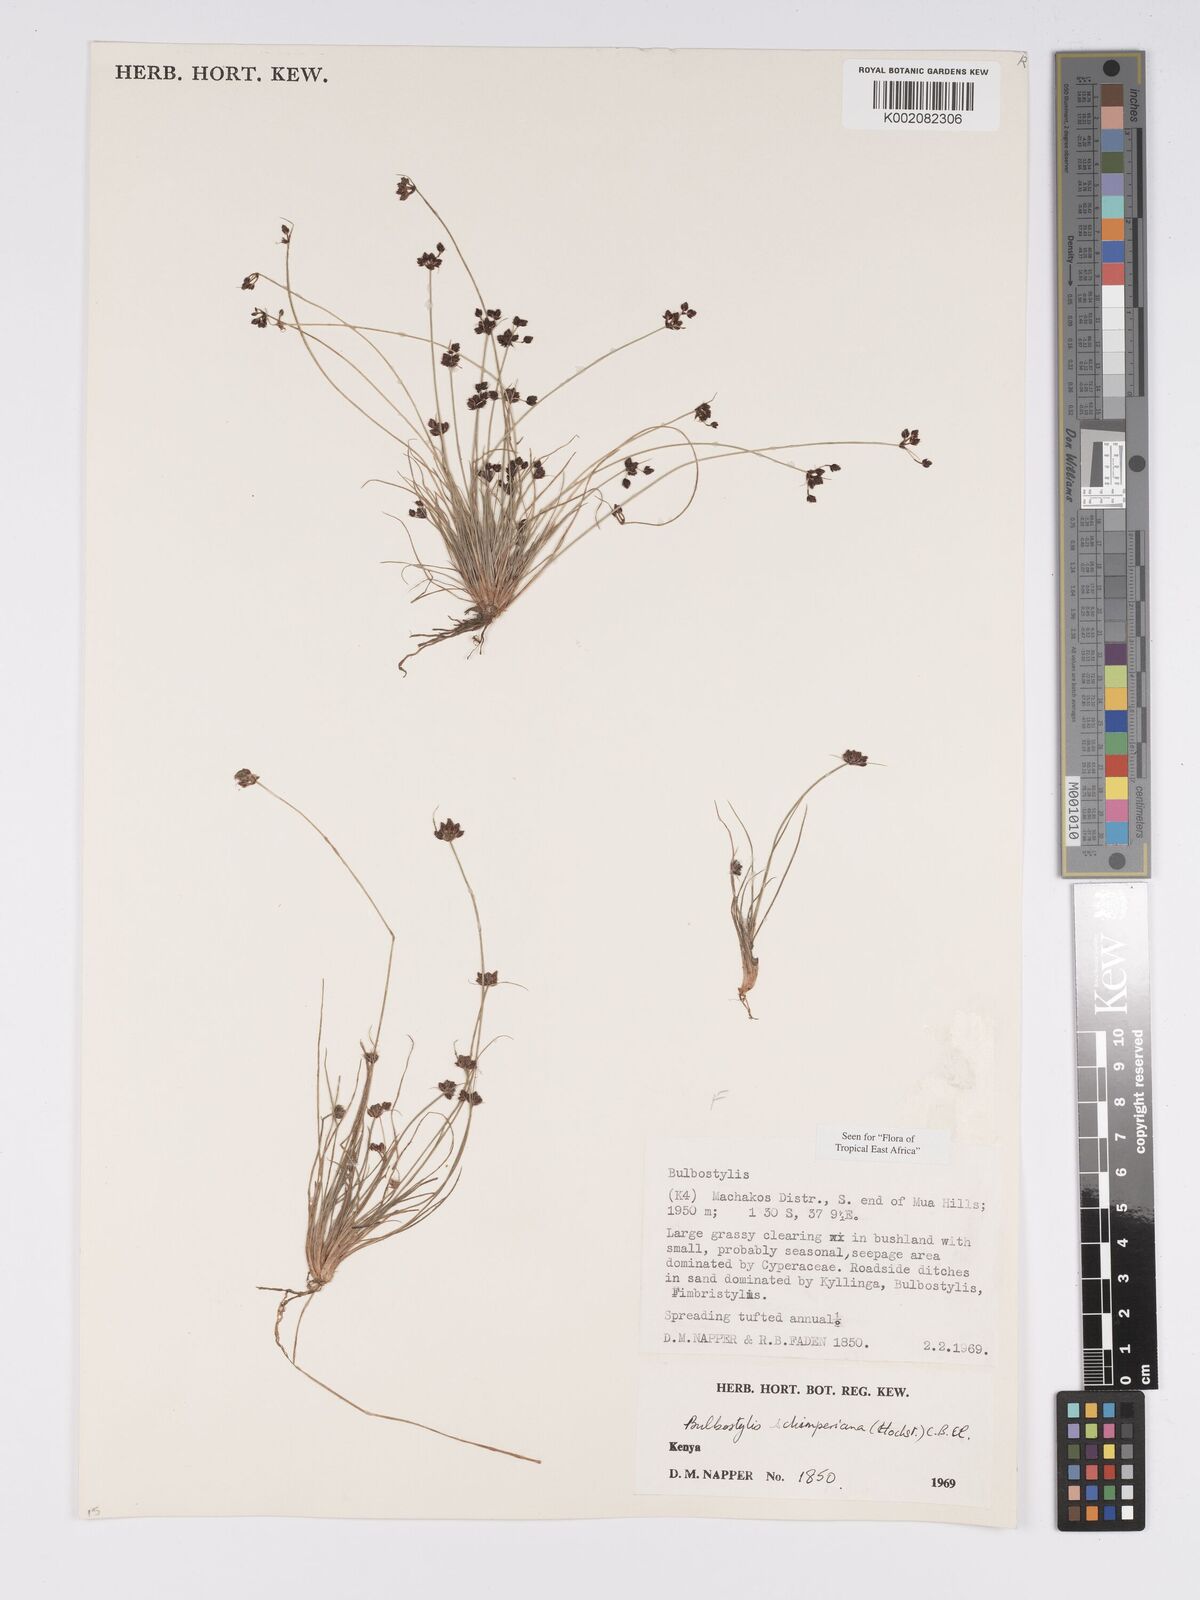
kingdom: Plantae
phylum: Tracheophyta
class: Liliopsida
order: Poales
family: Cyperaceae
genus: Bulbostylis
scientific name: Bulbostylis schimperiana
